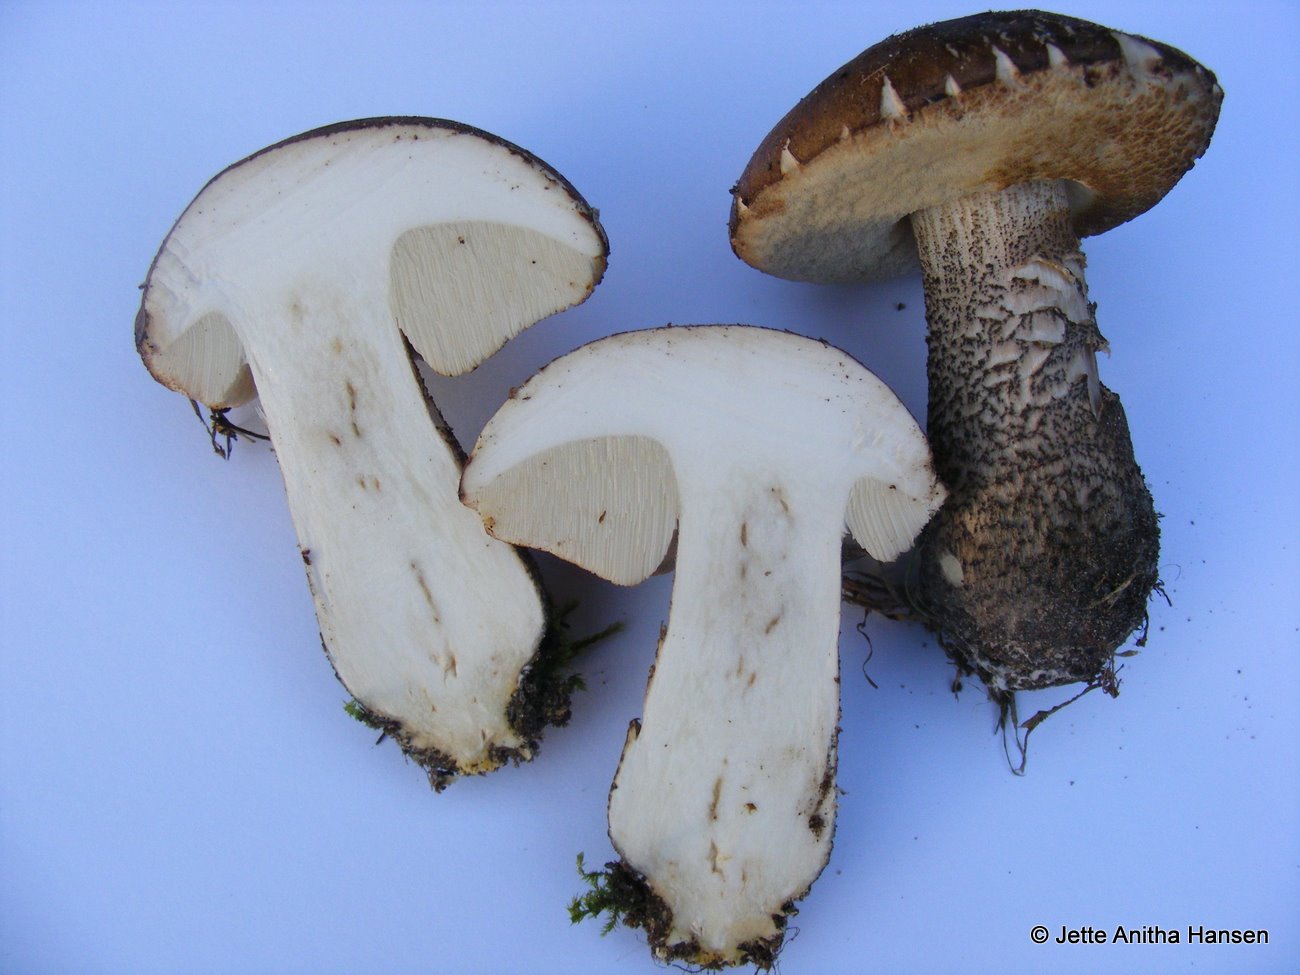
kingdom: Fungi
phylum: Basidiomycota
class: Agaricomycetes
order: Boletales
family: Boletaceae
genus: Leccinum
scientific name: Leccinum scabrum
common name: brun skælrørhat
